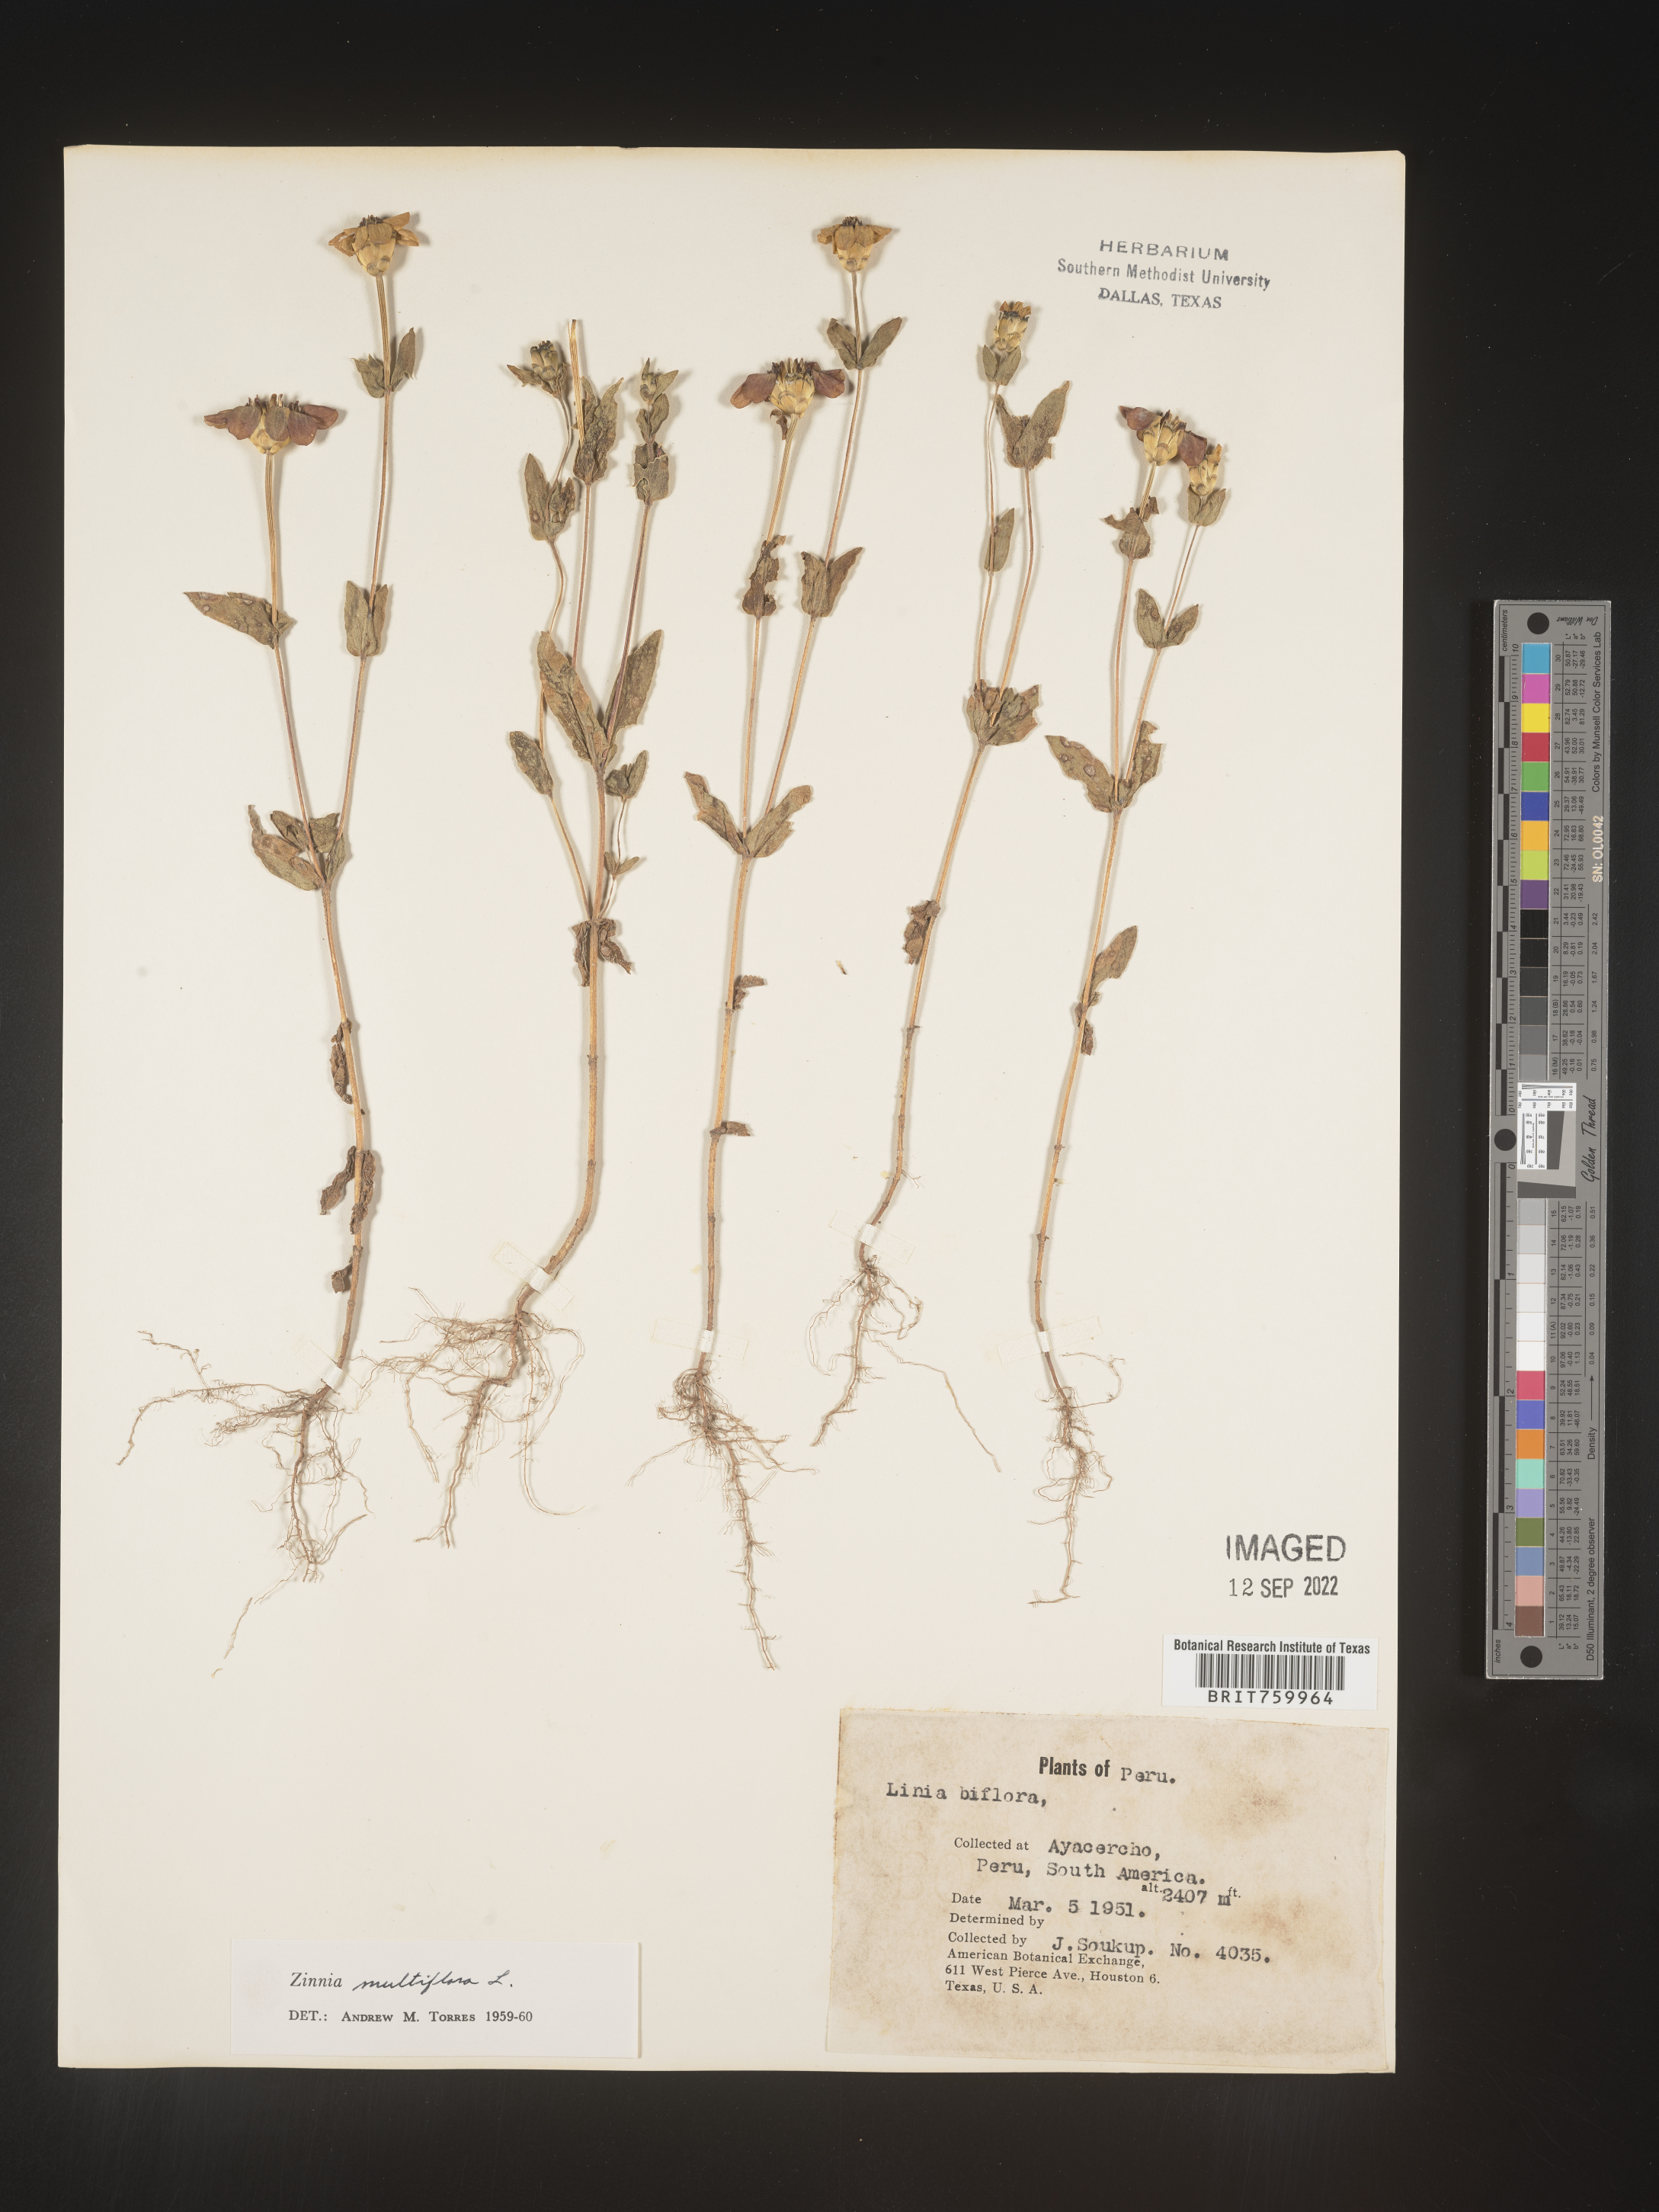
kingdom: Plantae
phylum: Tracheophyta
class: Magnoliopsida
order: Asterales
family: Asteraceae
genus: Zinnia
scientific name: Zinnia
